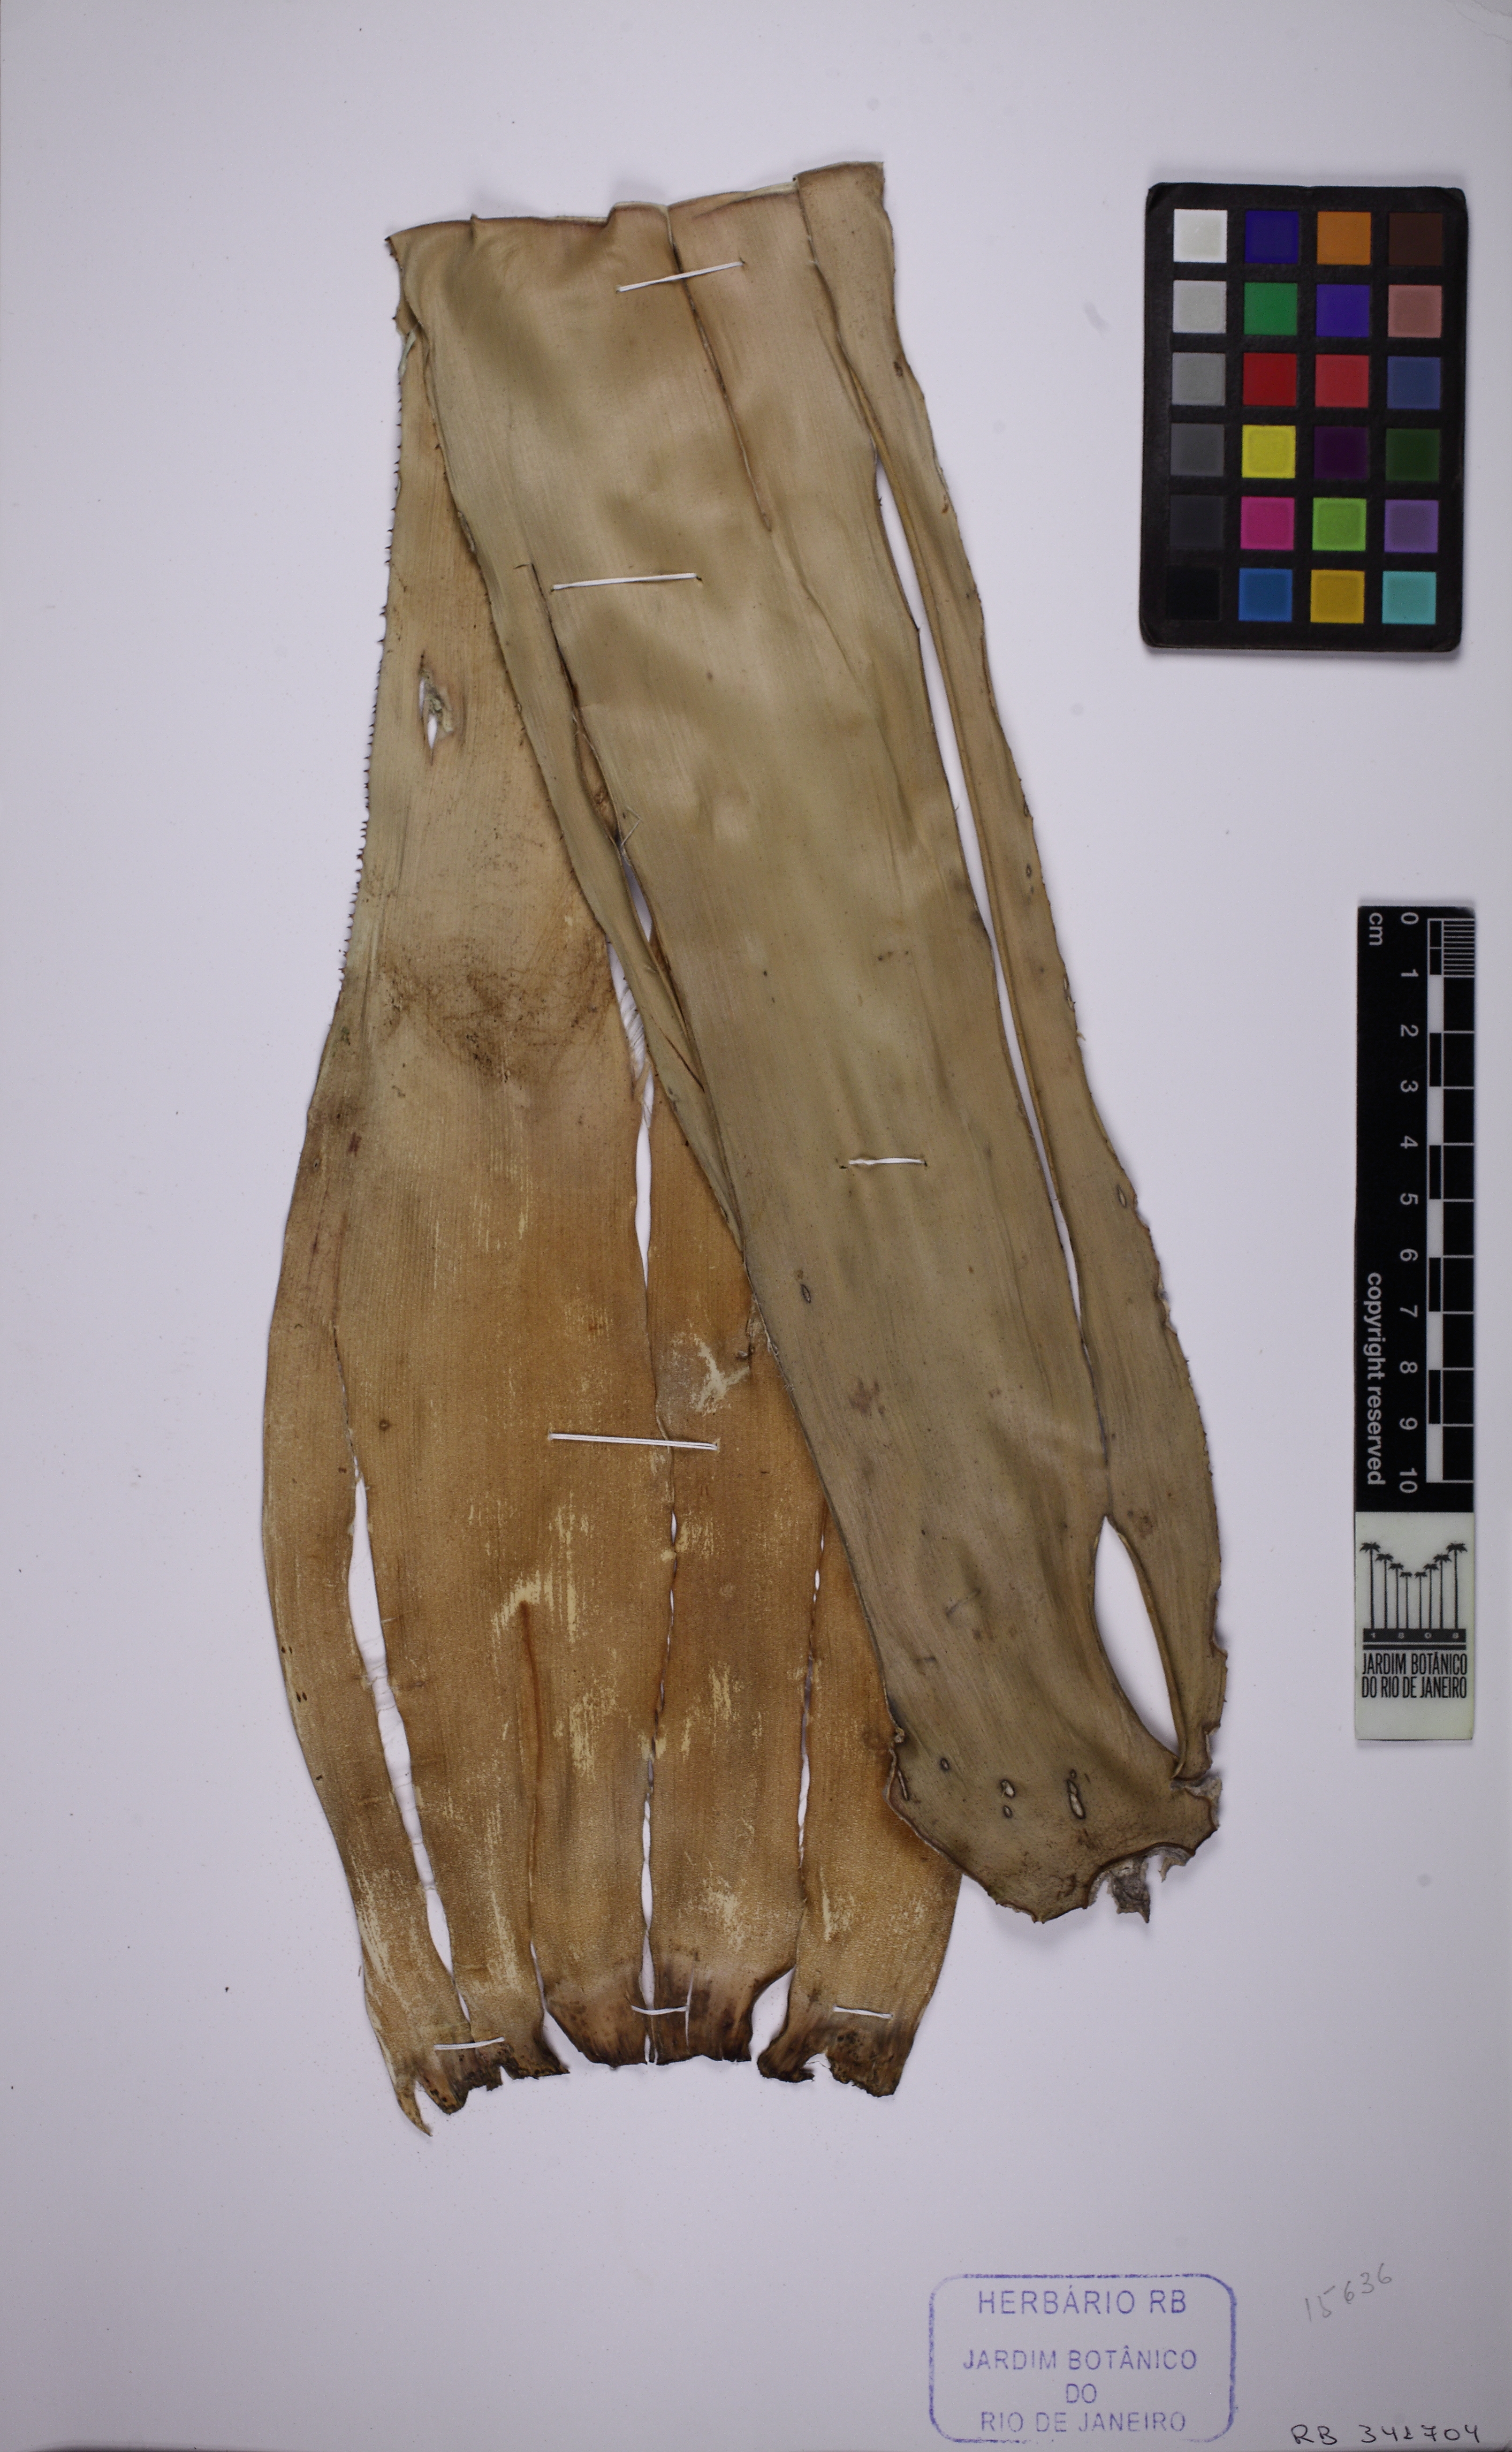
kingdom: Plantae
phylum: Tracheophyta
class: Liliopsida
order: Poales
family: Bromeliaceae
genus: Hohenbergia
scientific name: Hohenbergia augusta
